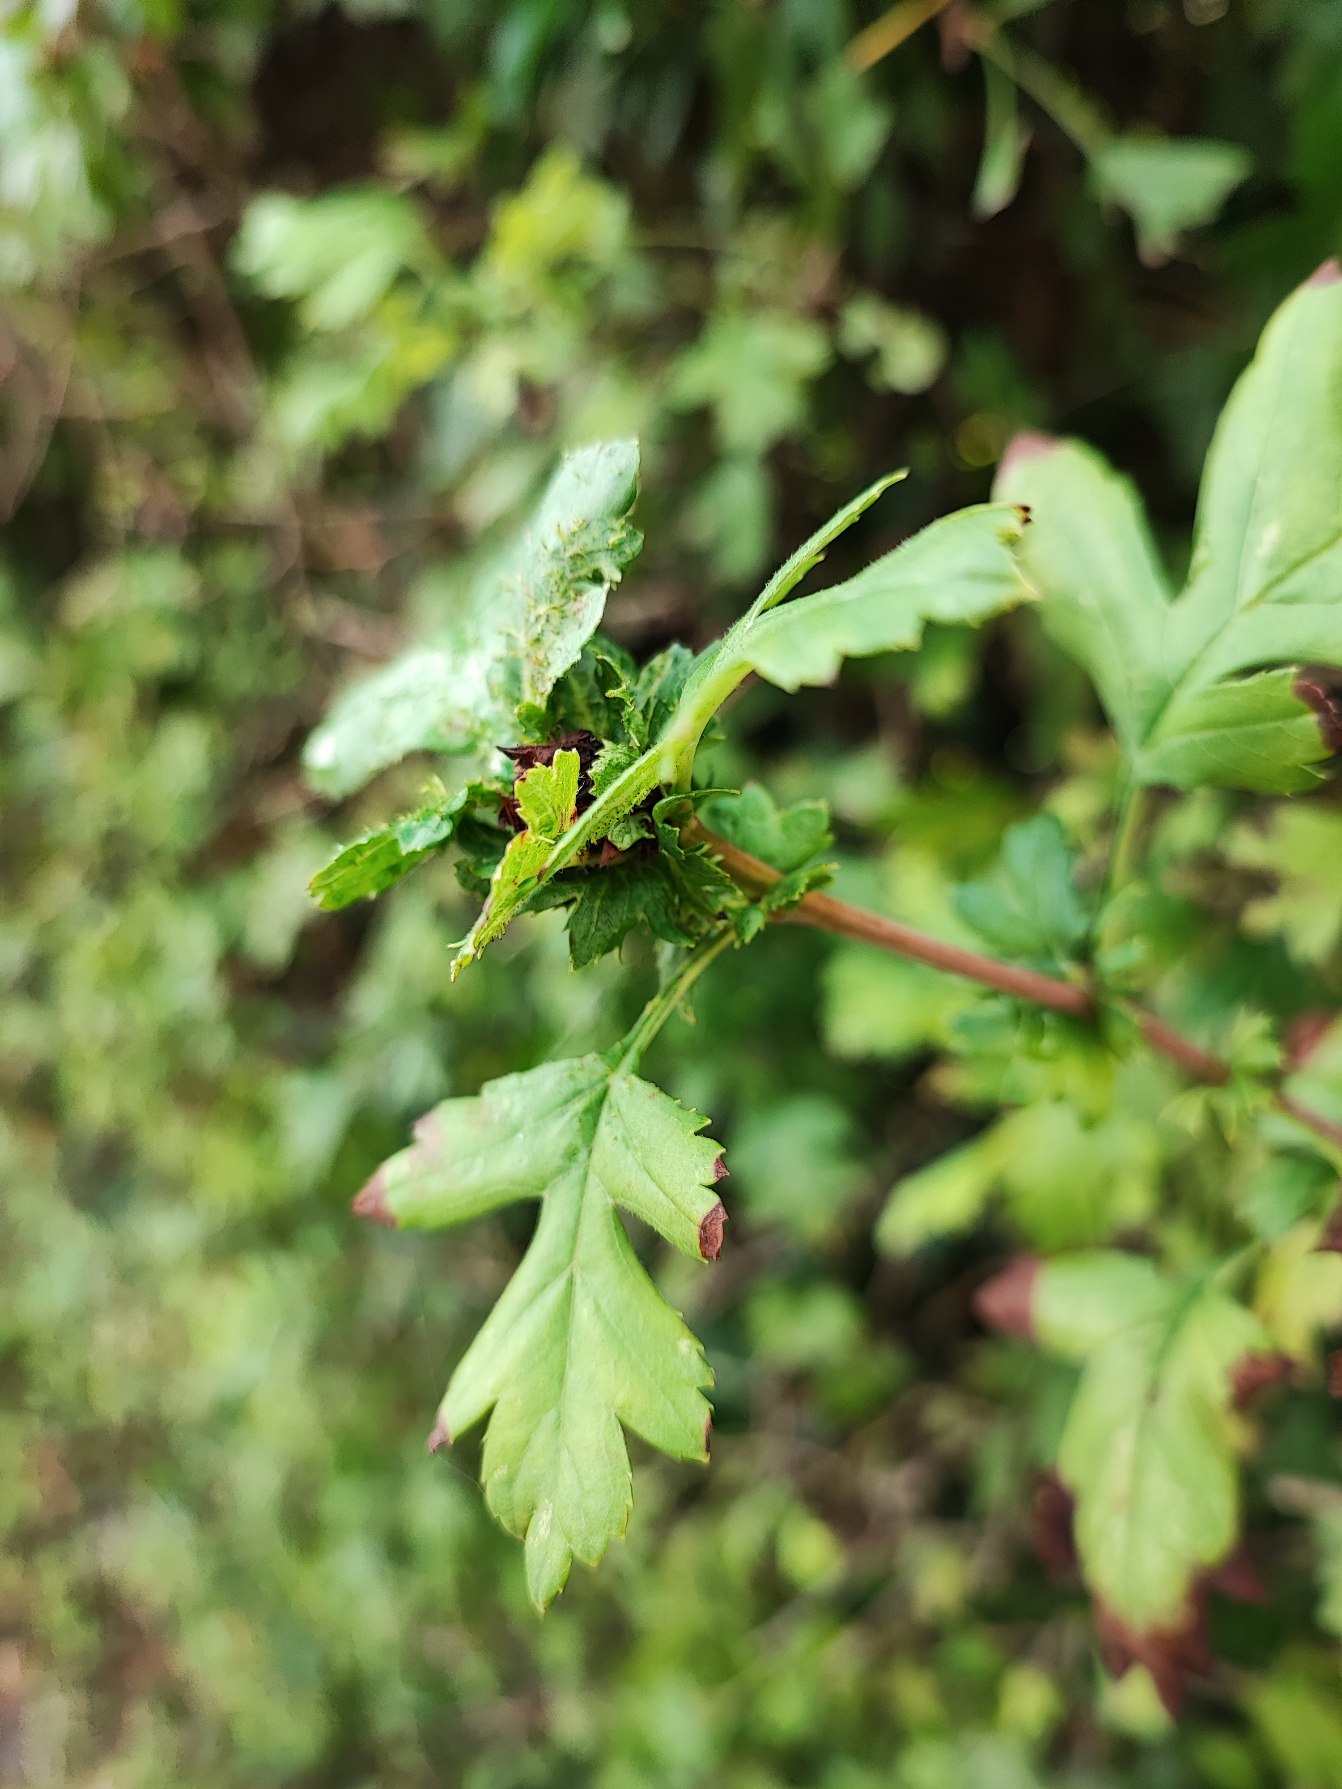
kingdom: Animalia
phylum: Arthropoda
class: Insecta
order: Diptera
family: Cecidomyiidae
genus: Dasineura
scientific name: Dasineura crataegi
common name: Tjørnerosetgalmyg
